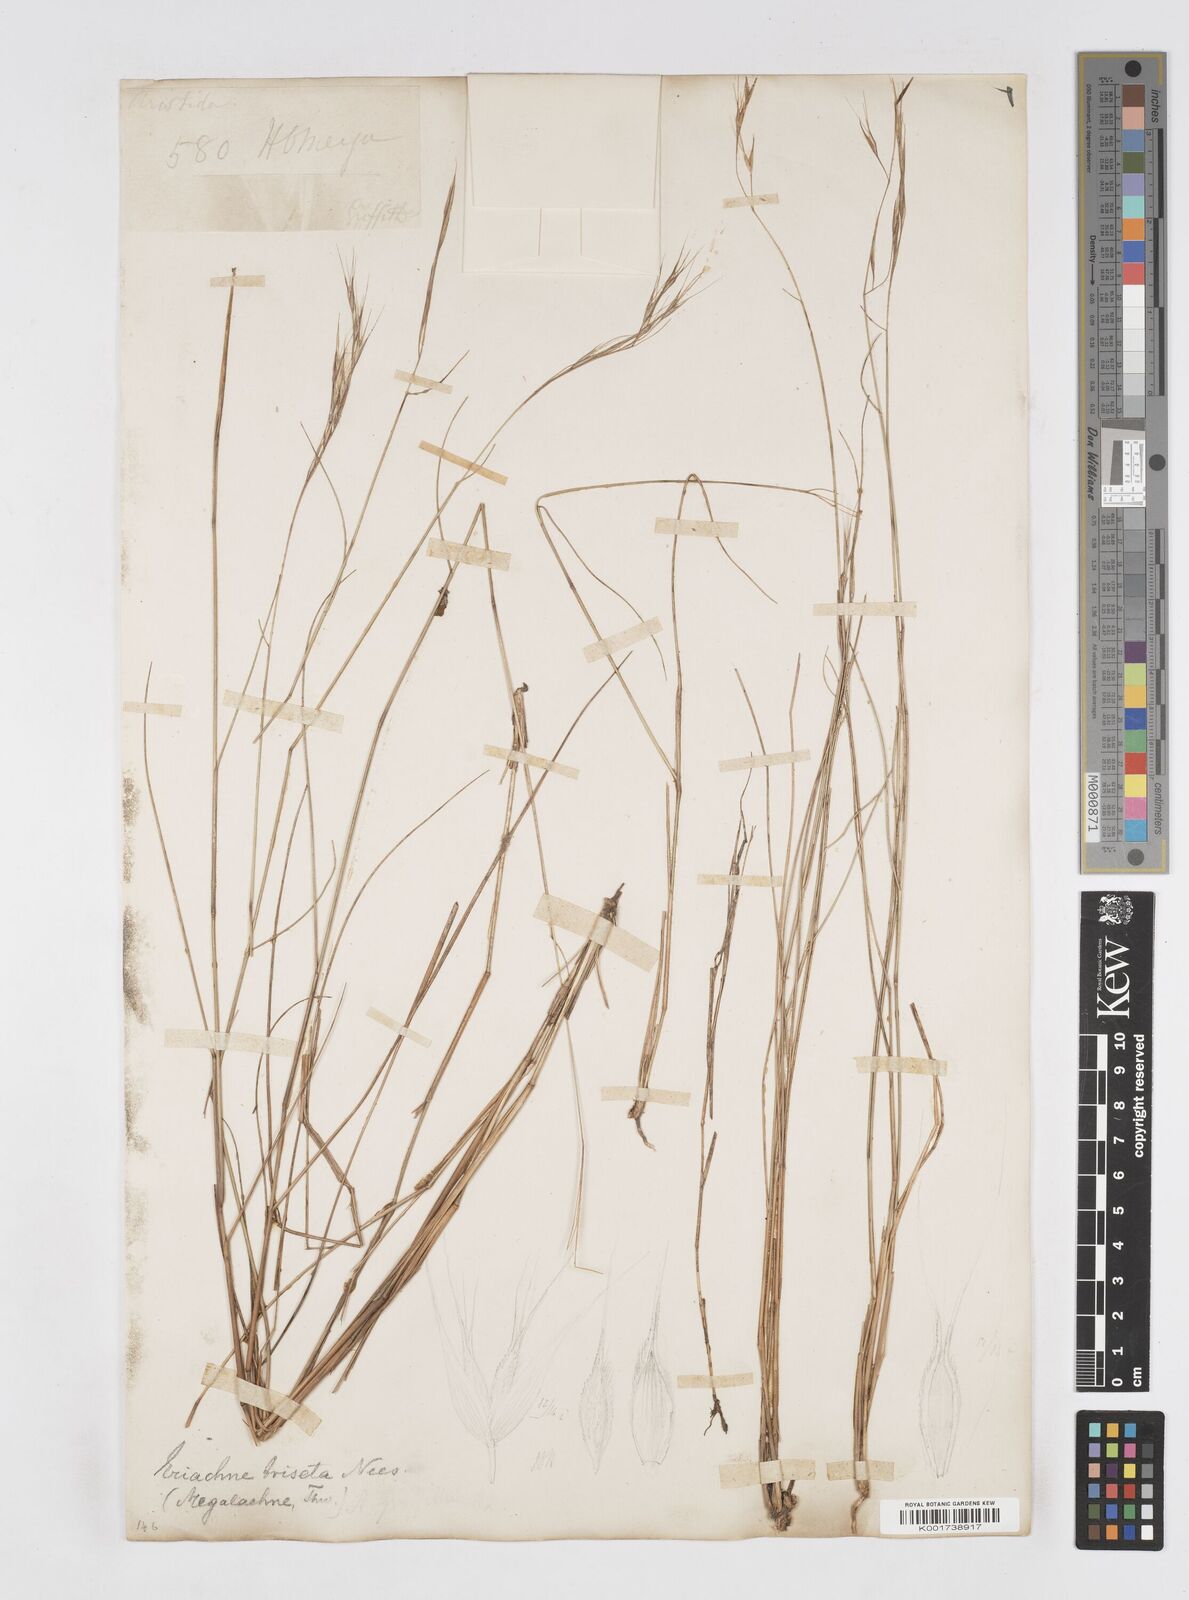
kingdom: Plantae
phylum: Tracheophyta
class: Liliopsida
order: Poales
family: Poaceae
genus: Eriachne
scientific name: Eriachne triseta
